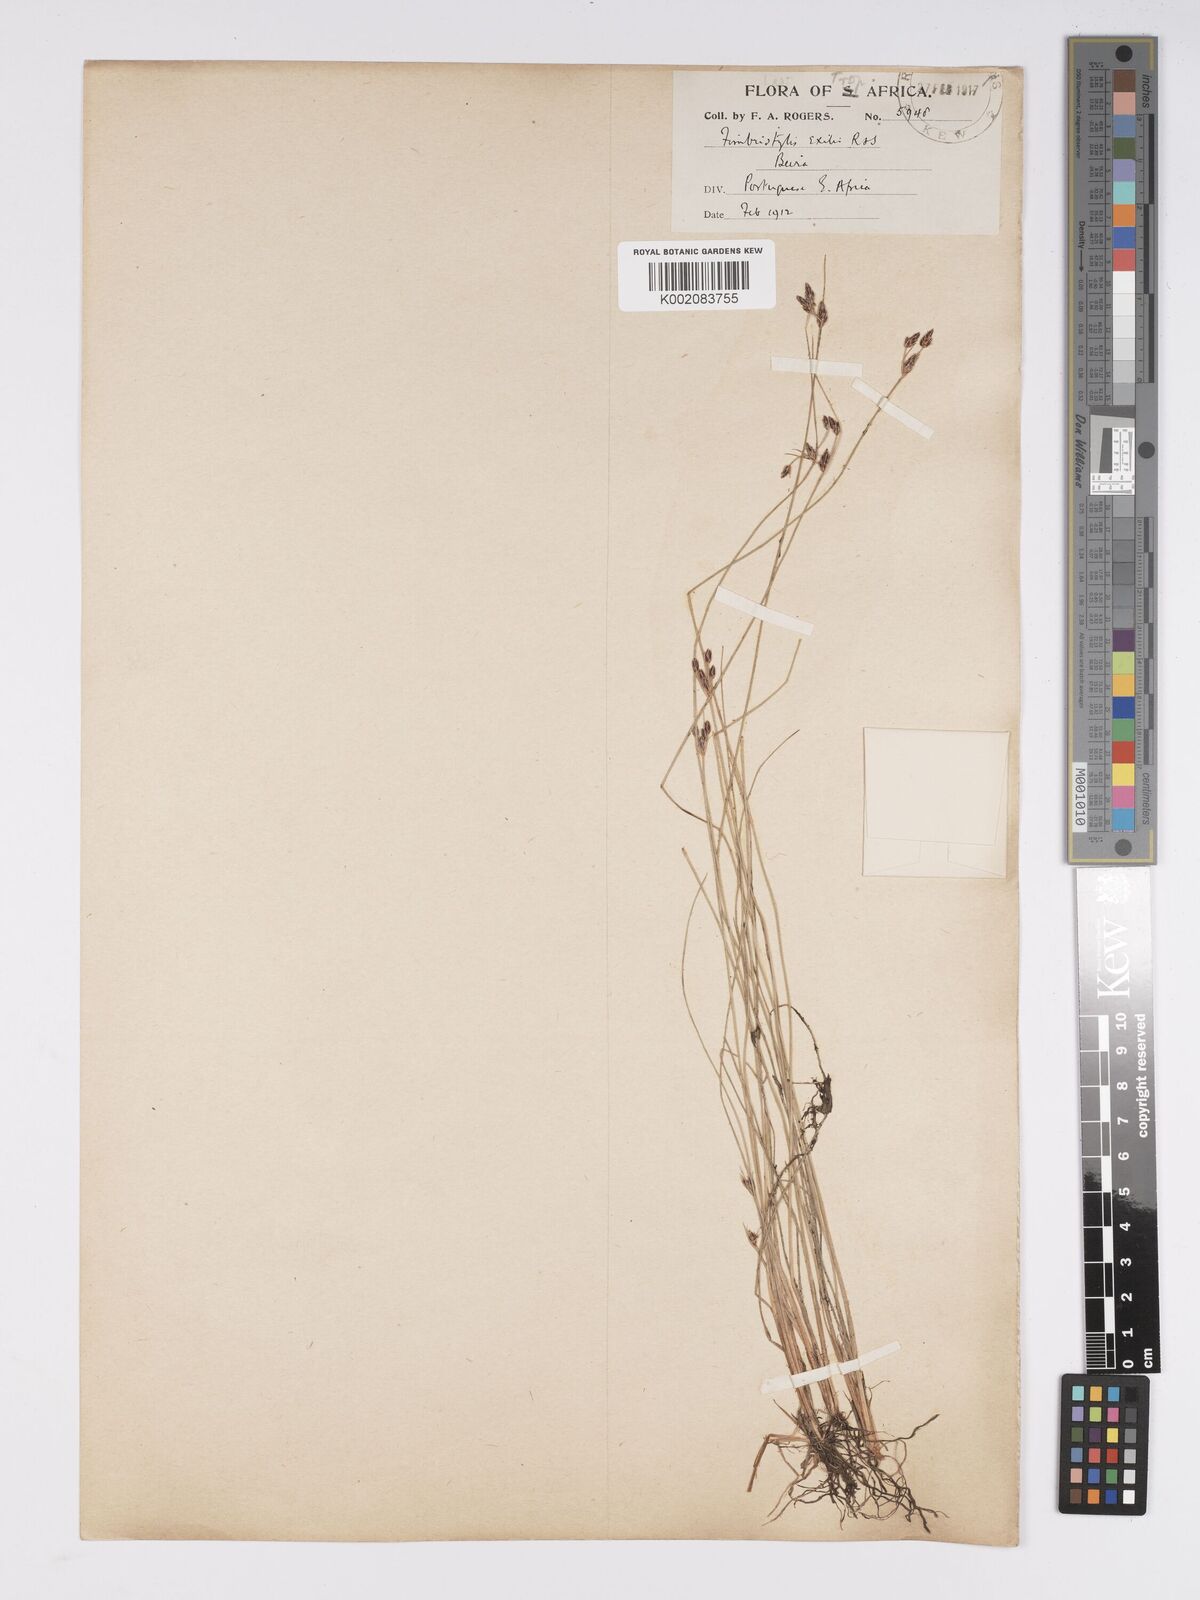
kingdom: Plantae
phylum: Tracheophyta
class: Liliopsida
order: Poales
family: Cyperaceae
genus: Bulbostylis
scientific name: Bulbostylis hispidula
